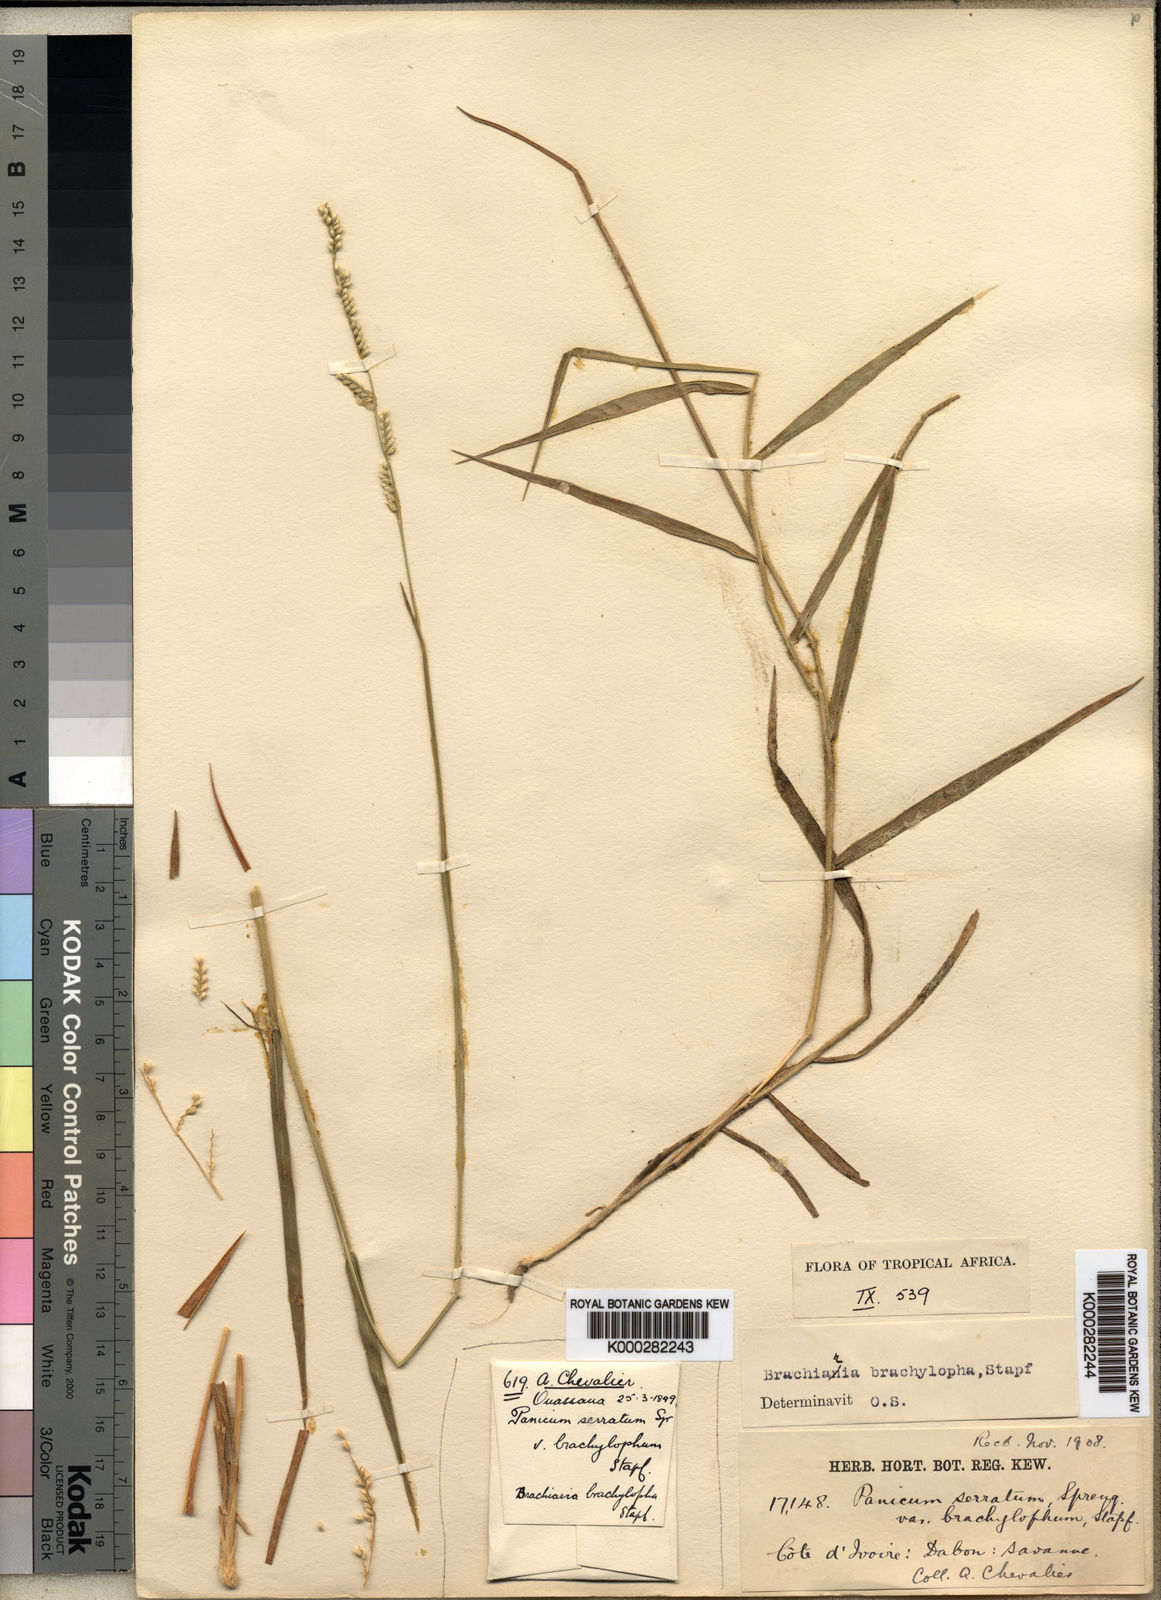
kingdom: Plantae
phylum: Tracheophyta
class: Liliopsida
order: Poales
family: Poaceae
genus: Urochloa
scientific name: Urochloa serrata
